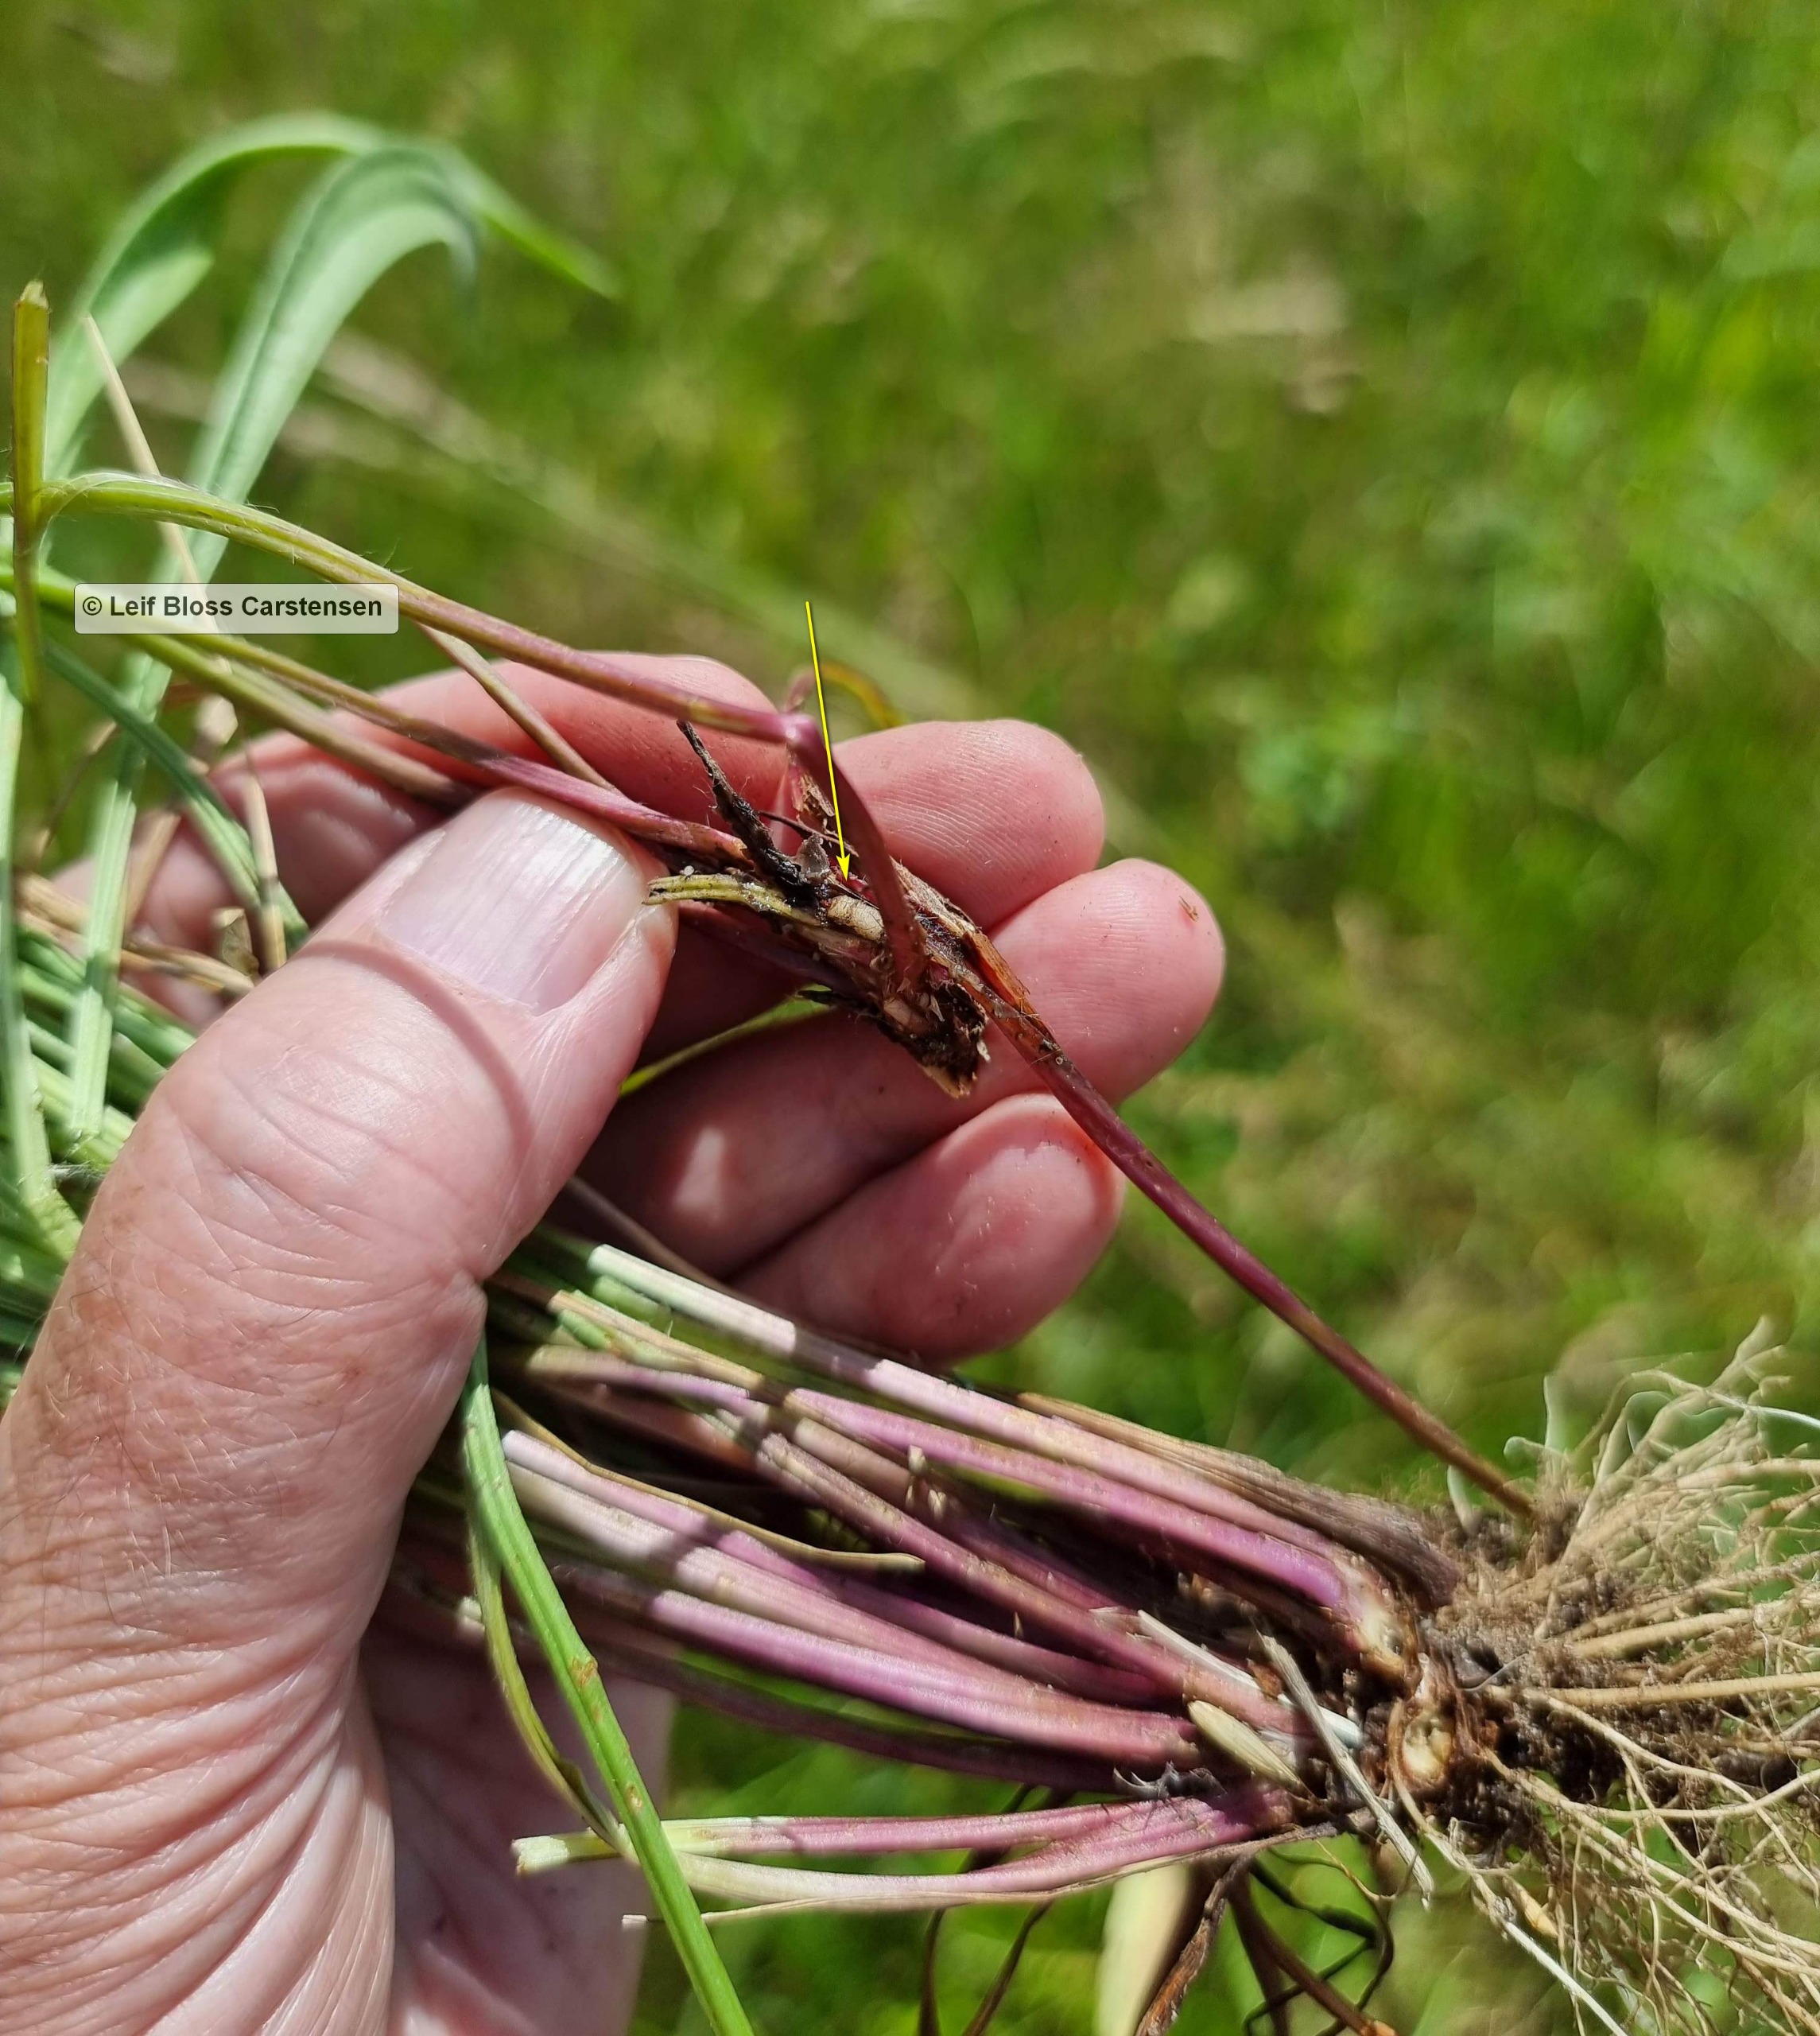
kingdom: Animalia
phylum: Arthropoda
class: Insecta
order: Diptera
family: Syrphidae
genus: Cheilosia
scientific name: Cheilosia lasiopa
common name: Vejbred-urtesvirreflue
